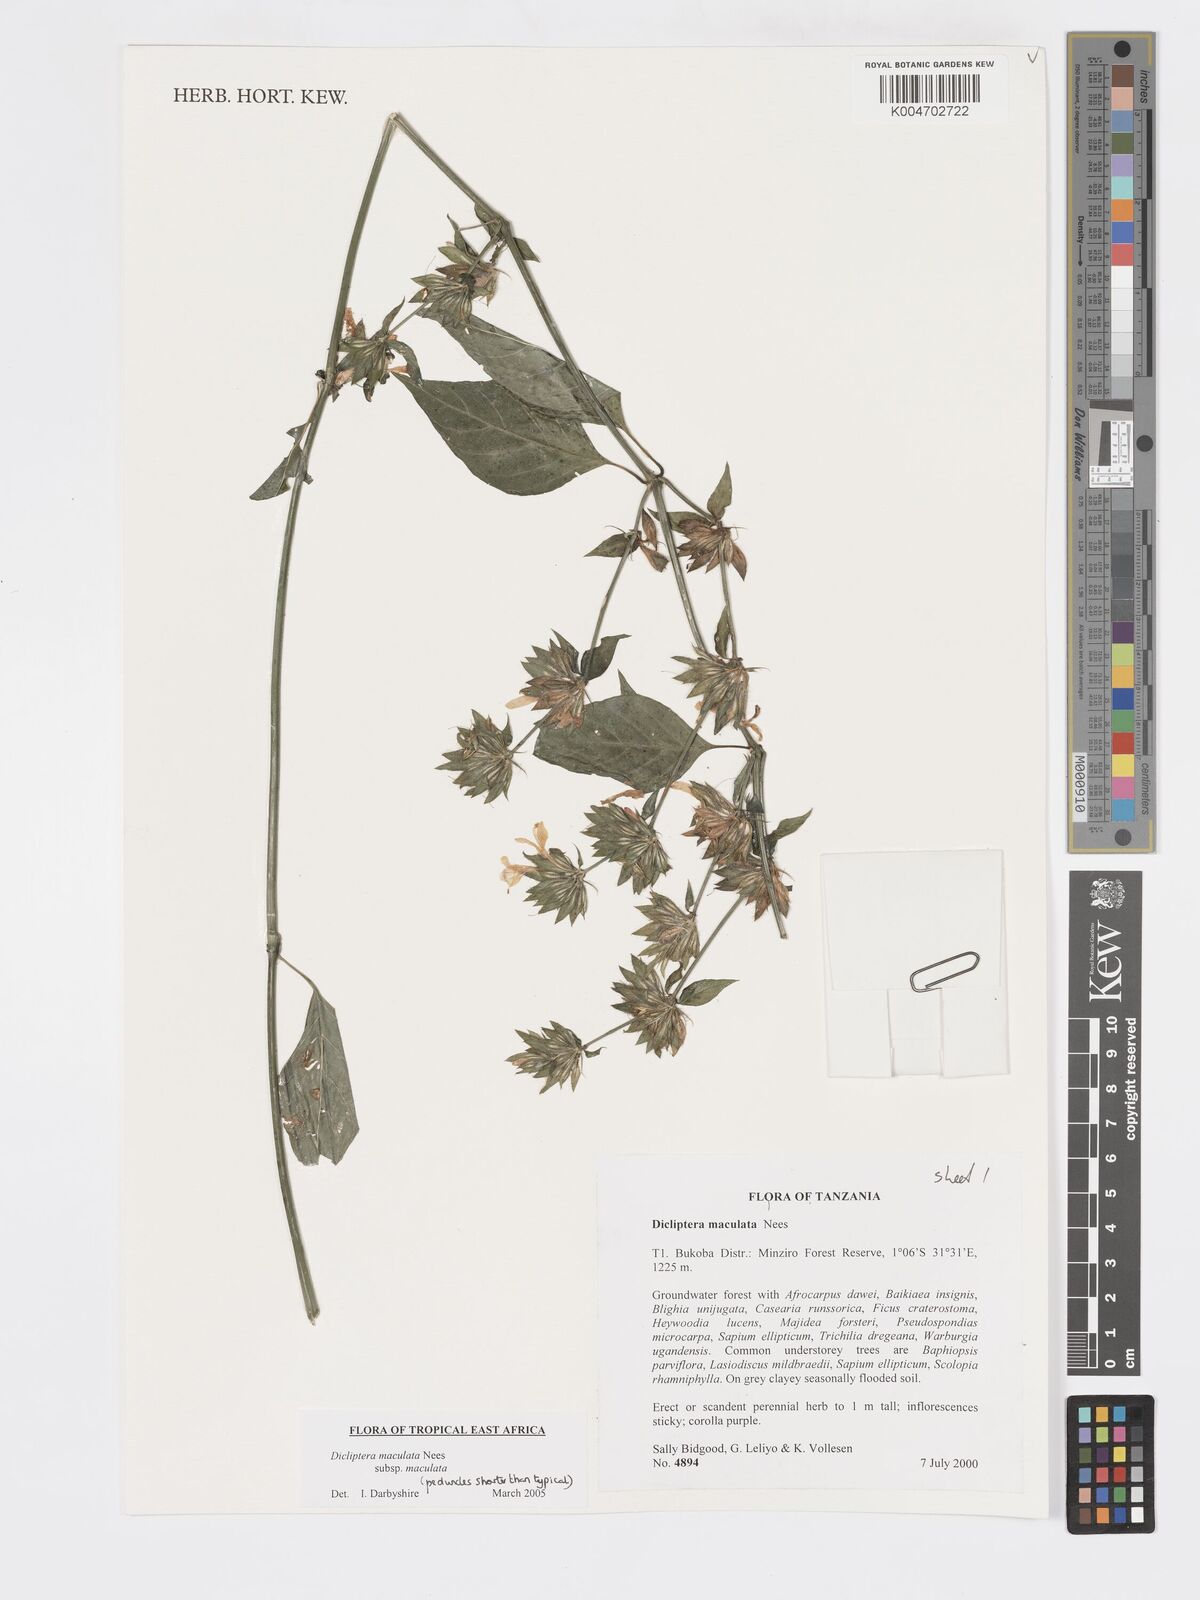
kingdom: Plantae
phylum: Tracheophyta
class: Magnoliopsida
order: Lamiales
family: Acanthaceae
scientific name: Acanthaceae
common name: Acanthaceae
